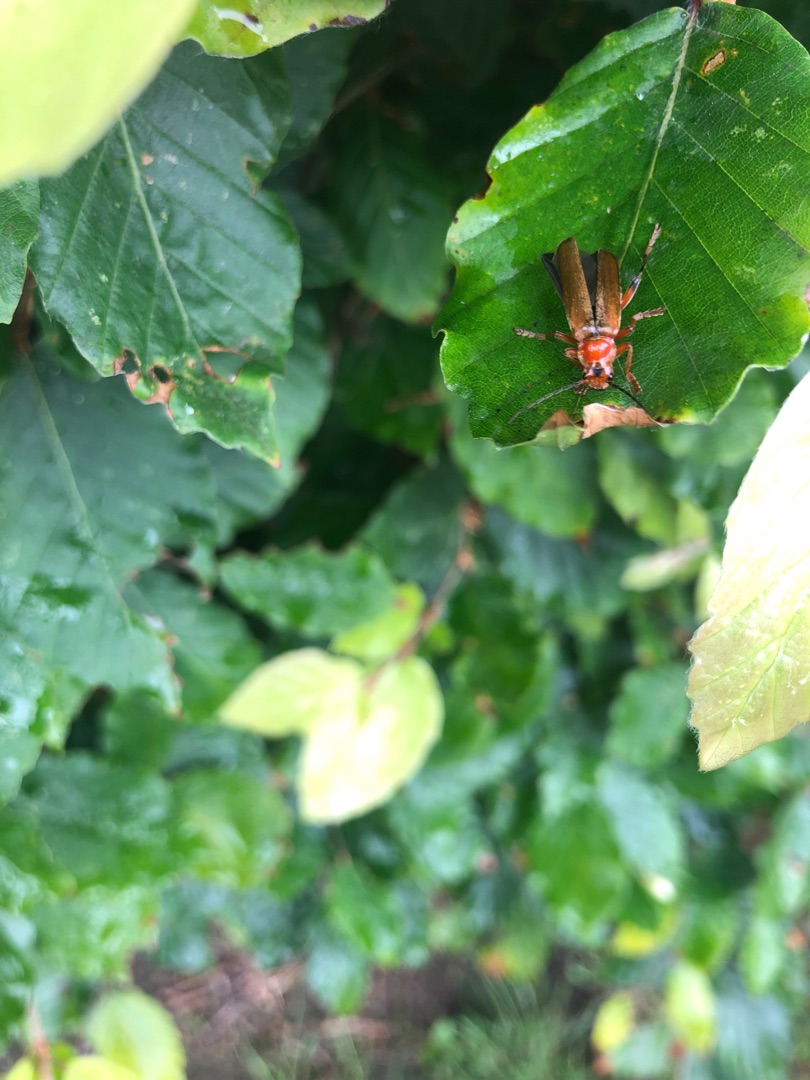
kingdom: Animalia
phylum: Arthropoda
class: Insecta
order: Coleoptera
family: Cantharidae
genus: Cantharis
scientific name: Cantharis livida
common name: Gul blødvinge
